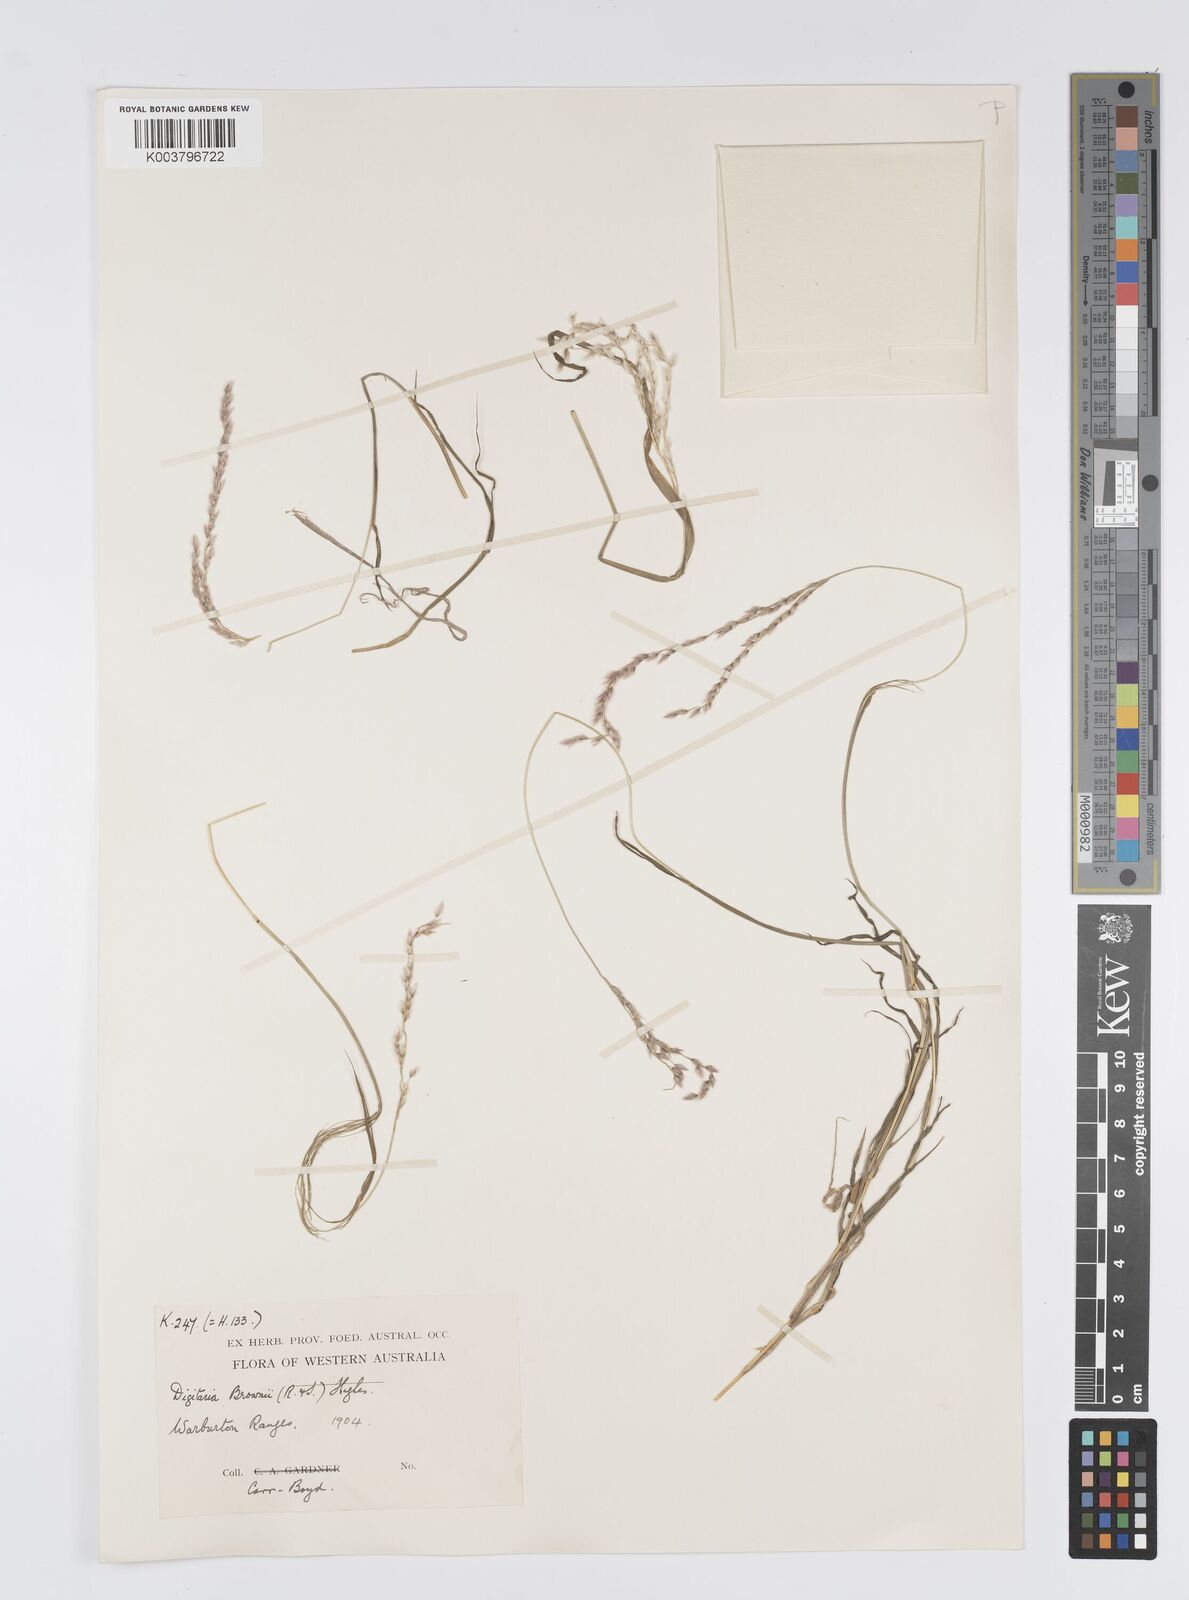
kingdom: Plantae
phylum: Tracheophyta
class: Liliopsida
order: Poales
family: Poaceae
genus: Digitaria
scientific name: Digitaria brownii
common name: Cotton grass
